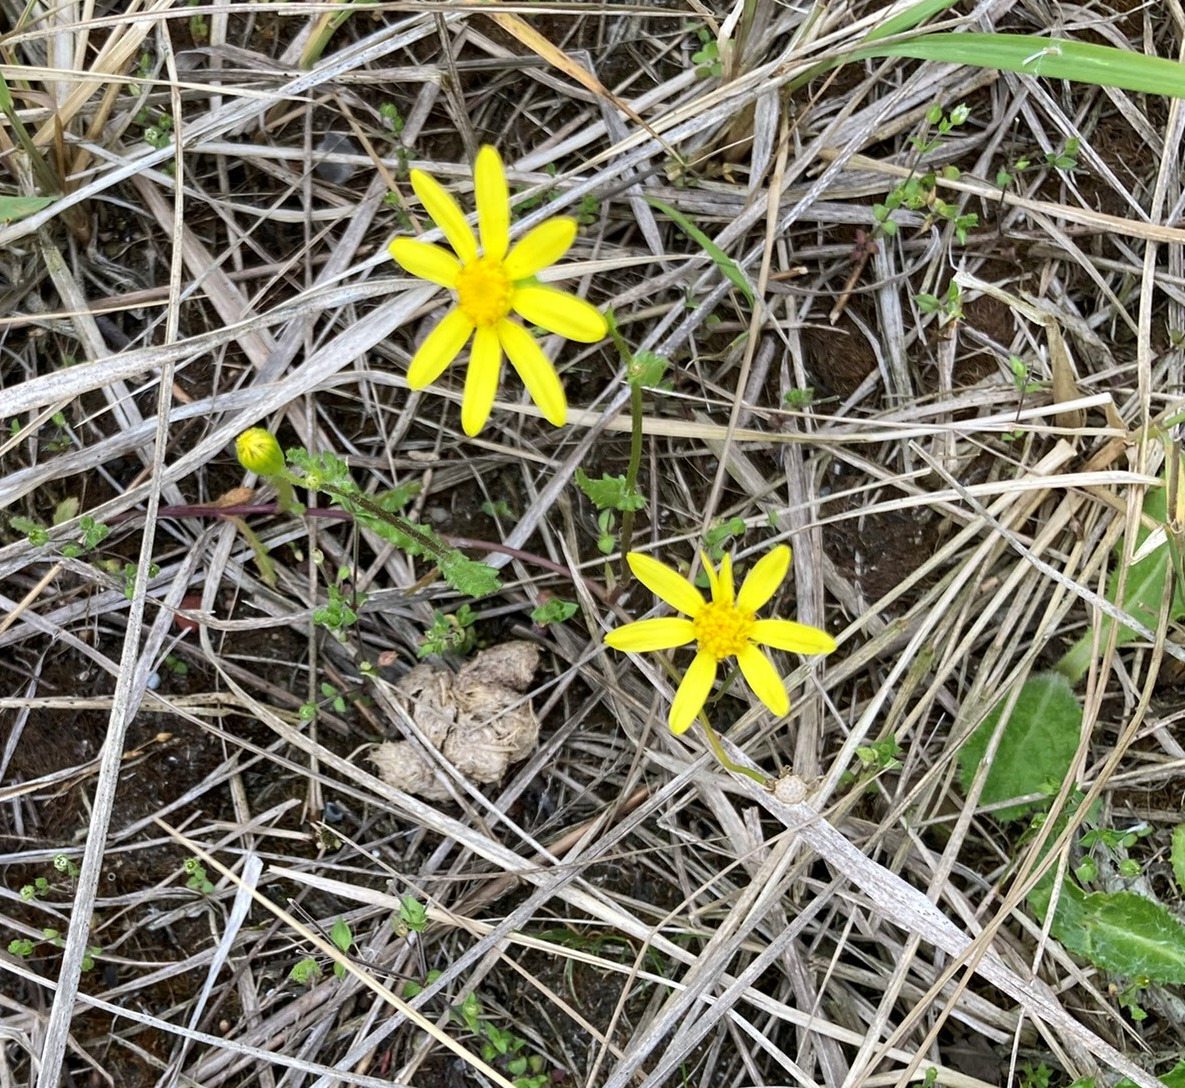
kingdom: Plantae
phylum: Tracheophyta
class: Magnoliopsida
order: Asterales
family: Asteraceae
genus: Senecio
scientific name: Senecio leucanthemifolius
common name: Vår-brandbæger
